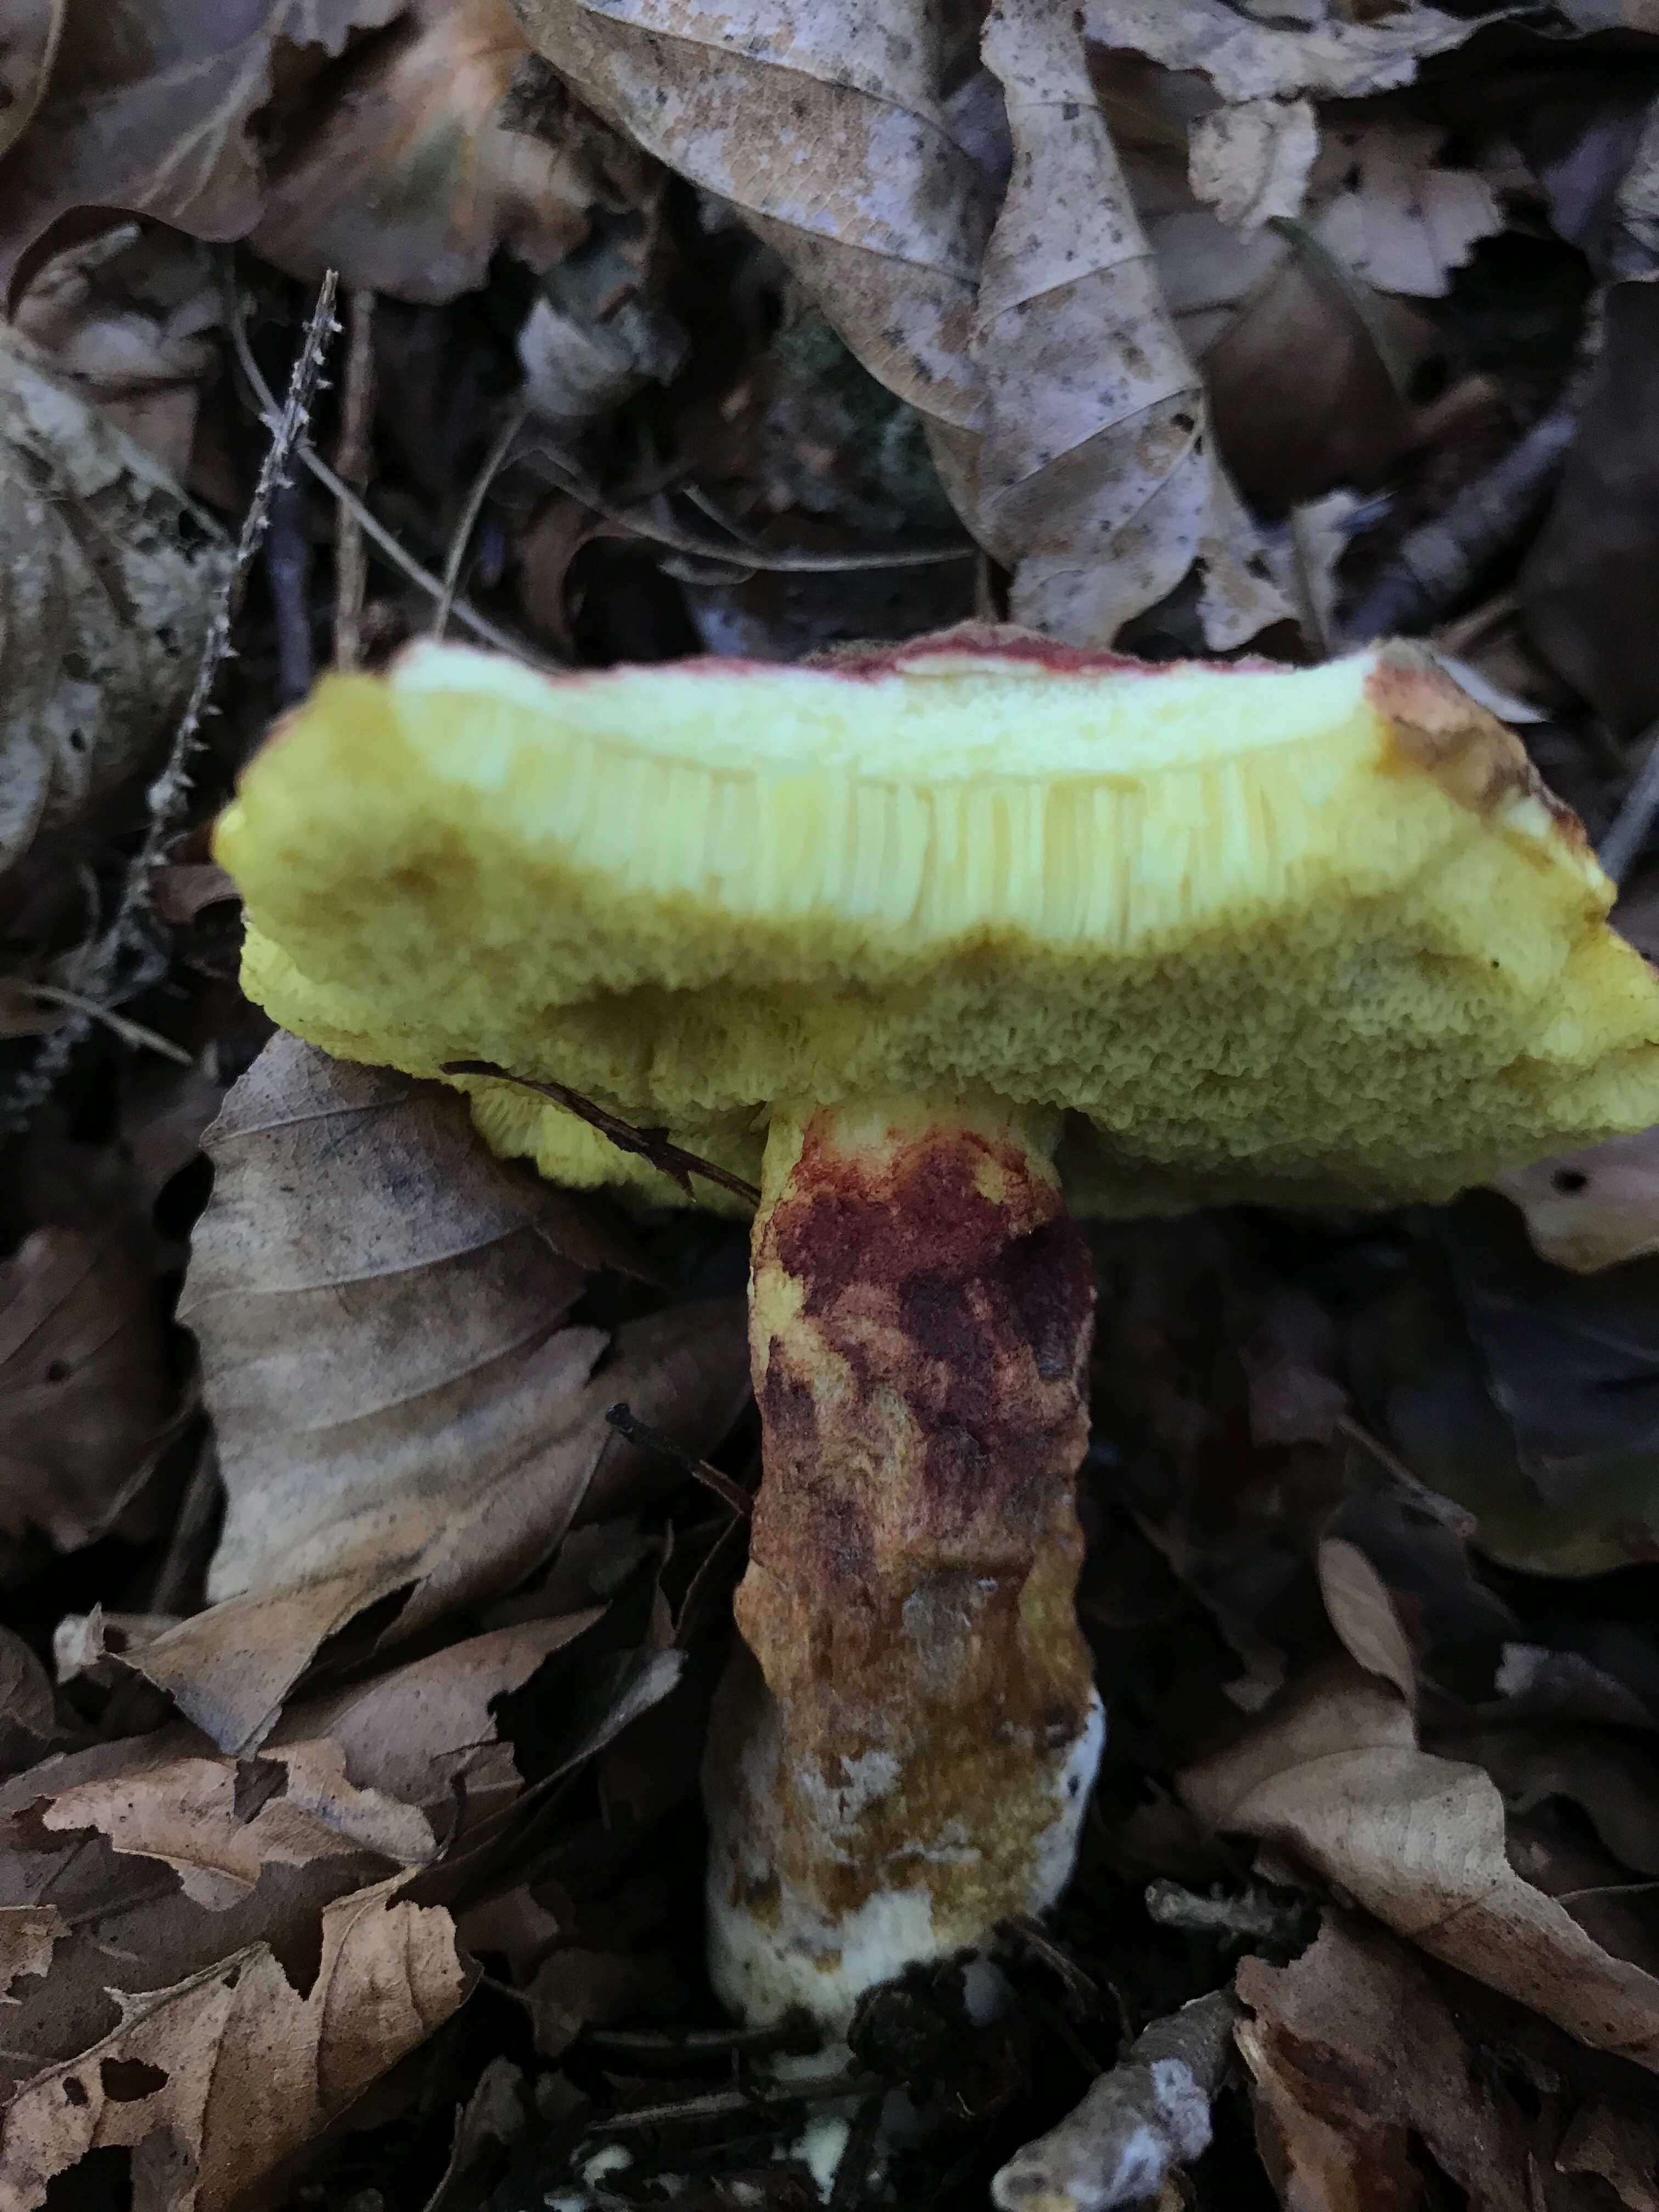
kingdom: Fungi
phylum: Basidiomycota
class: Agaricomycetes
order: Boletales
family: Boletaceae
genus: Xerocomellus
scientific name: Xerocomellus
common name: dværgrørhat
